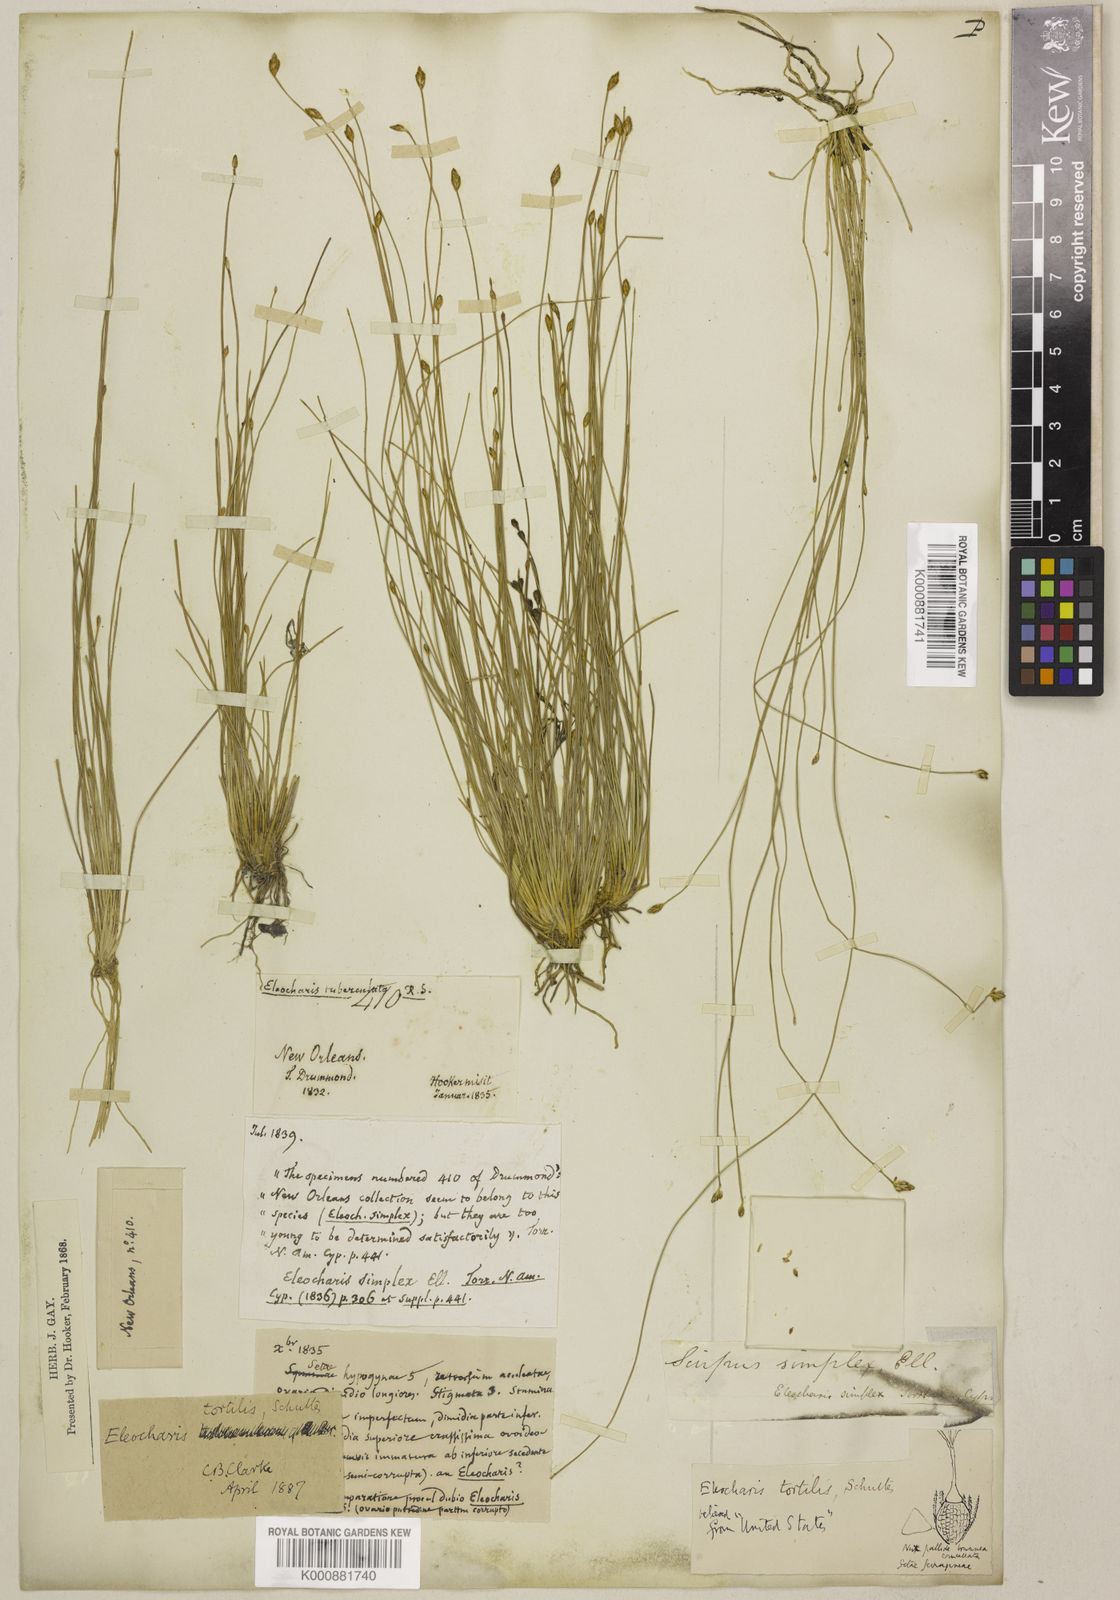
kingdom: Plantae
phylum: Tracheophyta
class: Liliopsida
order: Poales
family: Cyperaceae
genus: Eleocharis
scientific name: Eleocharis tuberculosa
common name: Cone-cup spikerush
